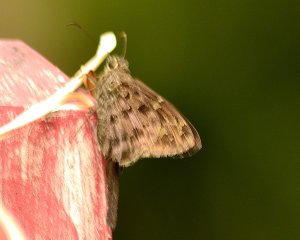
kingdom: Animalia
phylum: Arthropoda
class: Insecta
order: Lepidoptera
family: Hesperiidae
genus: Urbanus
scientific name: Urbanus dorantes
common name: Dorantes Longtail
